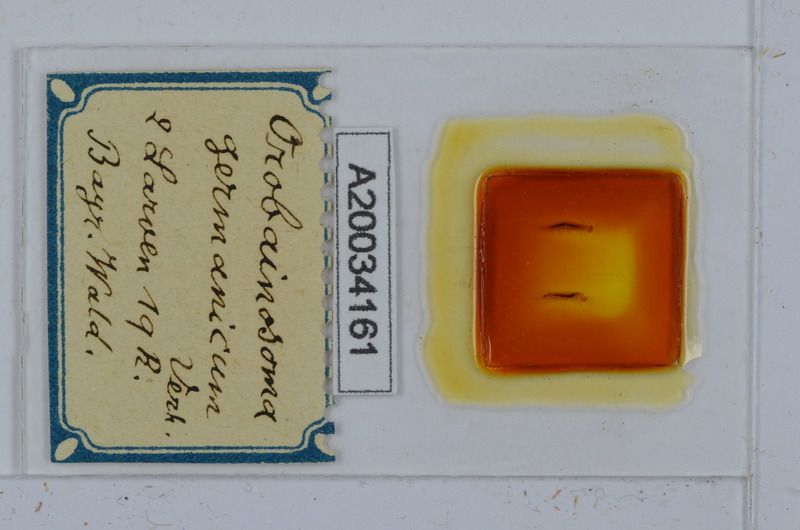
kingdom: Animalia
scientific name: Animalia
